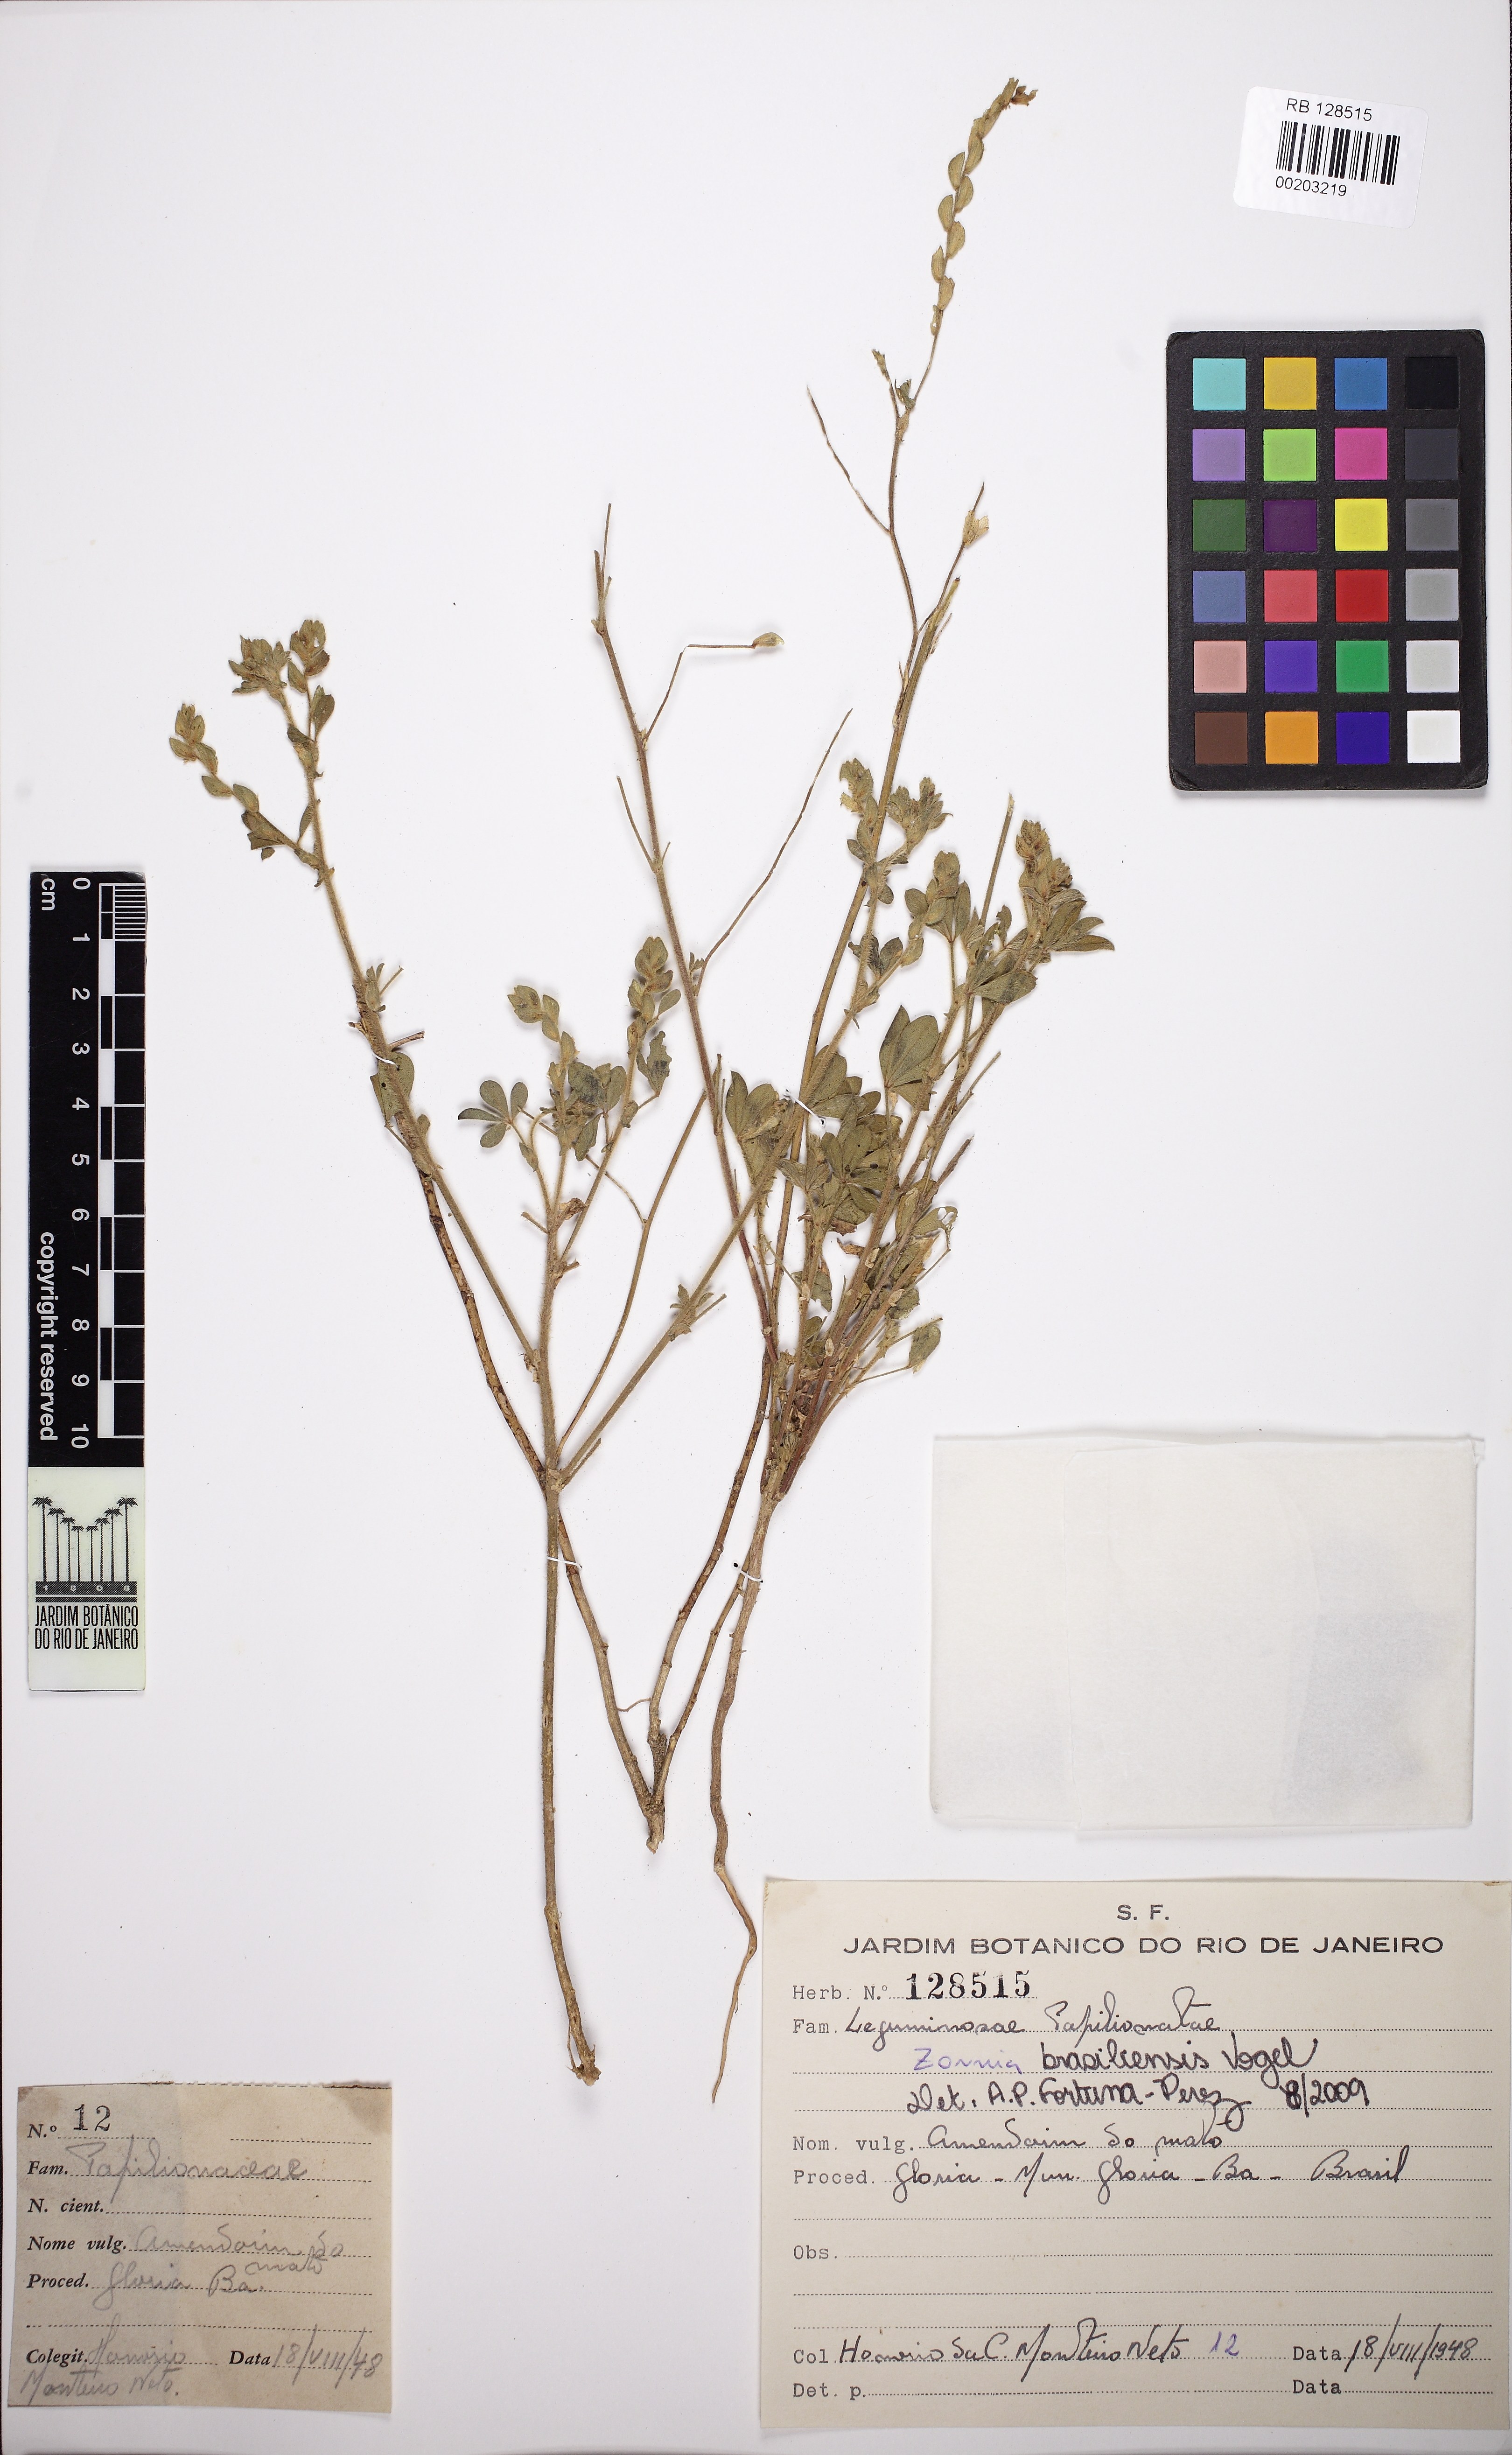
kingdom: Plantae
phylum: Tracheophyta
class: Magnoliopsida
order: Fabales
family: Fabaceae
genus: Zornia
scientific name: Zornia brasiliensis
